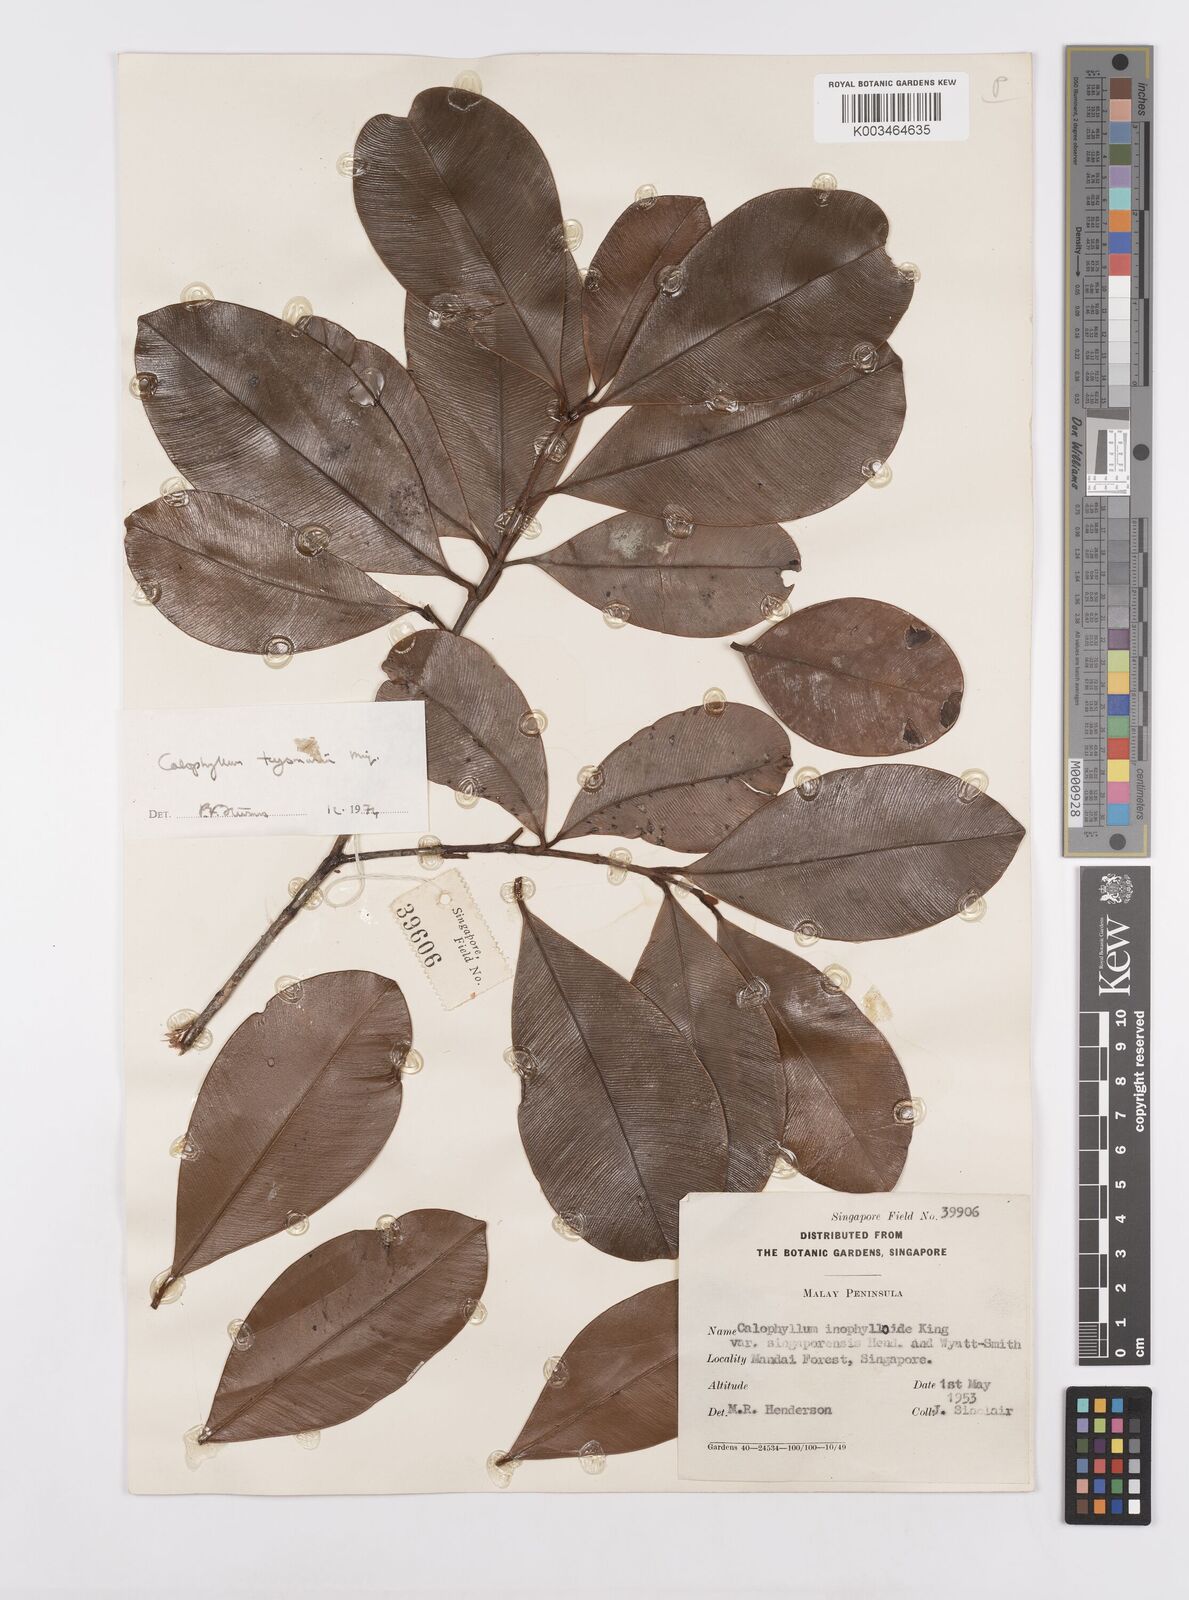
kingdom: Plantae
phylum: Tracheophyta
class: Magnoliopsida
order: Malpighiales
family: Calophyllaceae
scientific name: Calophyllaceae
